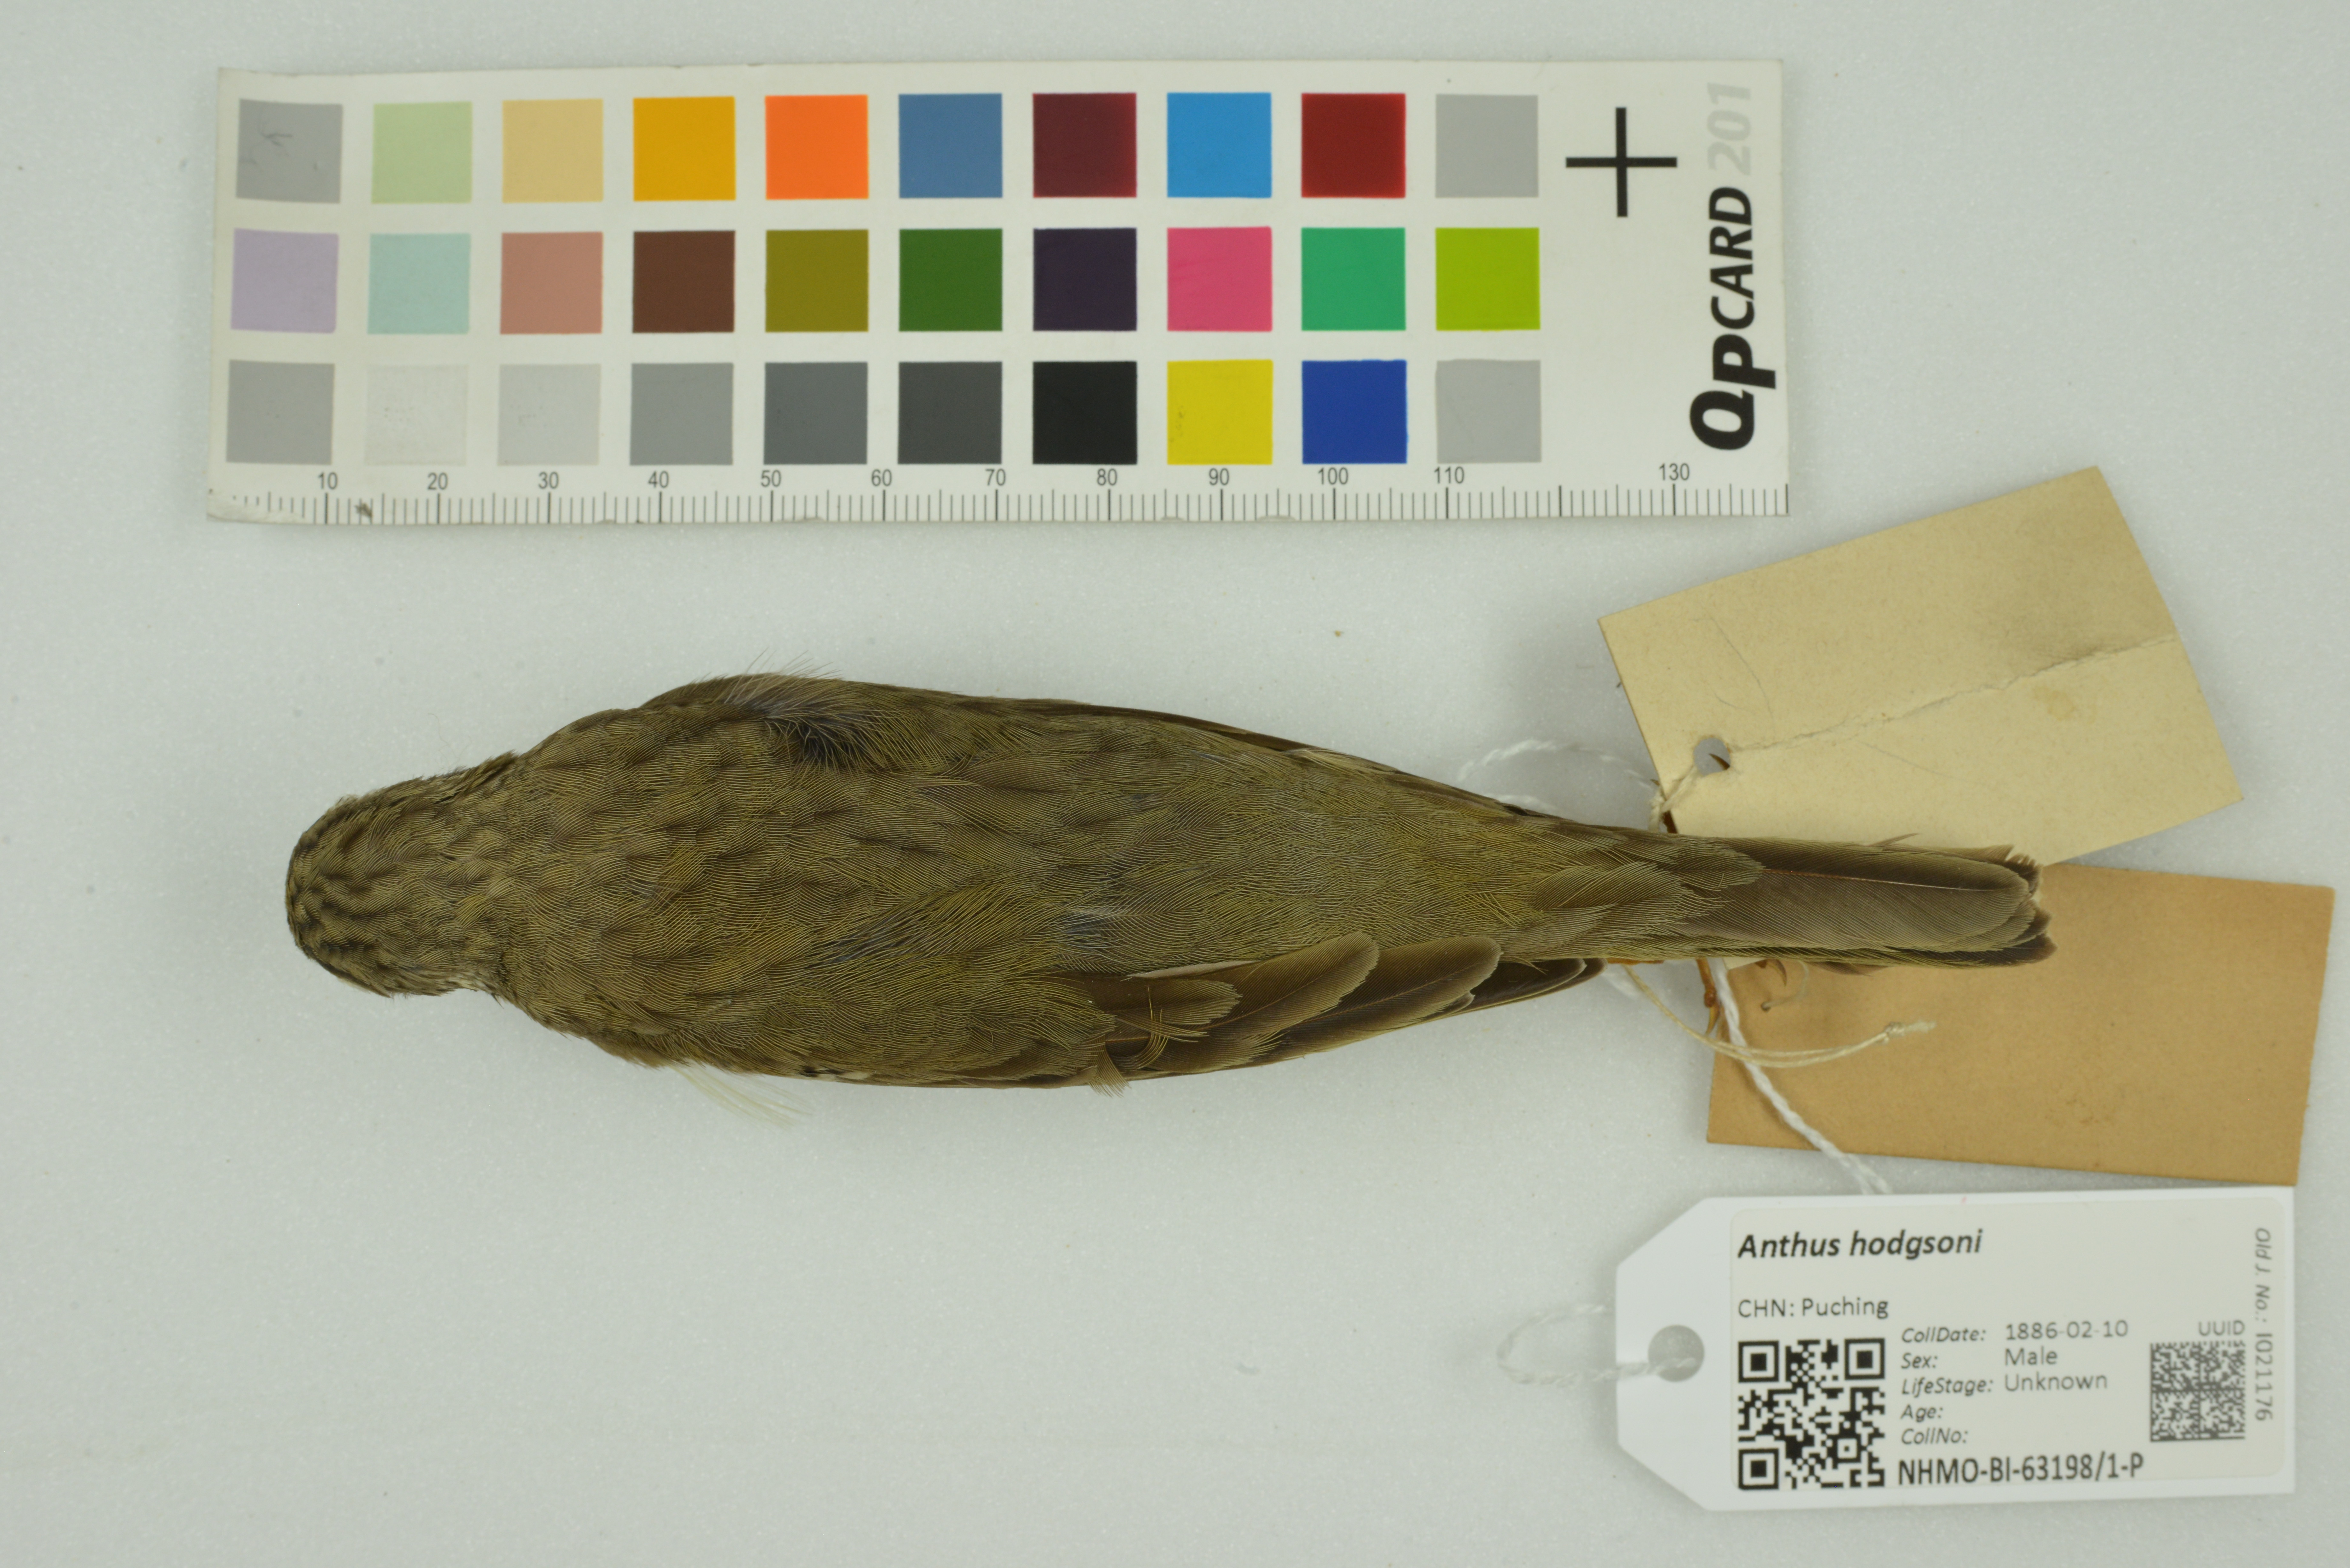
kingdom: Animalia
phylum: Chordata
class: Aves
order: Passeriformes
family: Motacillidae
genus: Anthus
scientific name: Anthus hodgsoni
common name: Olive-backed pipit
